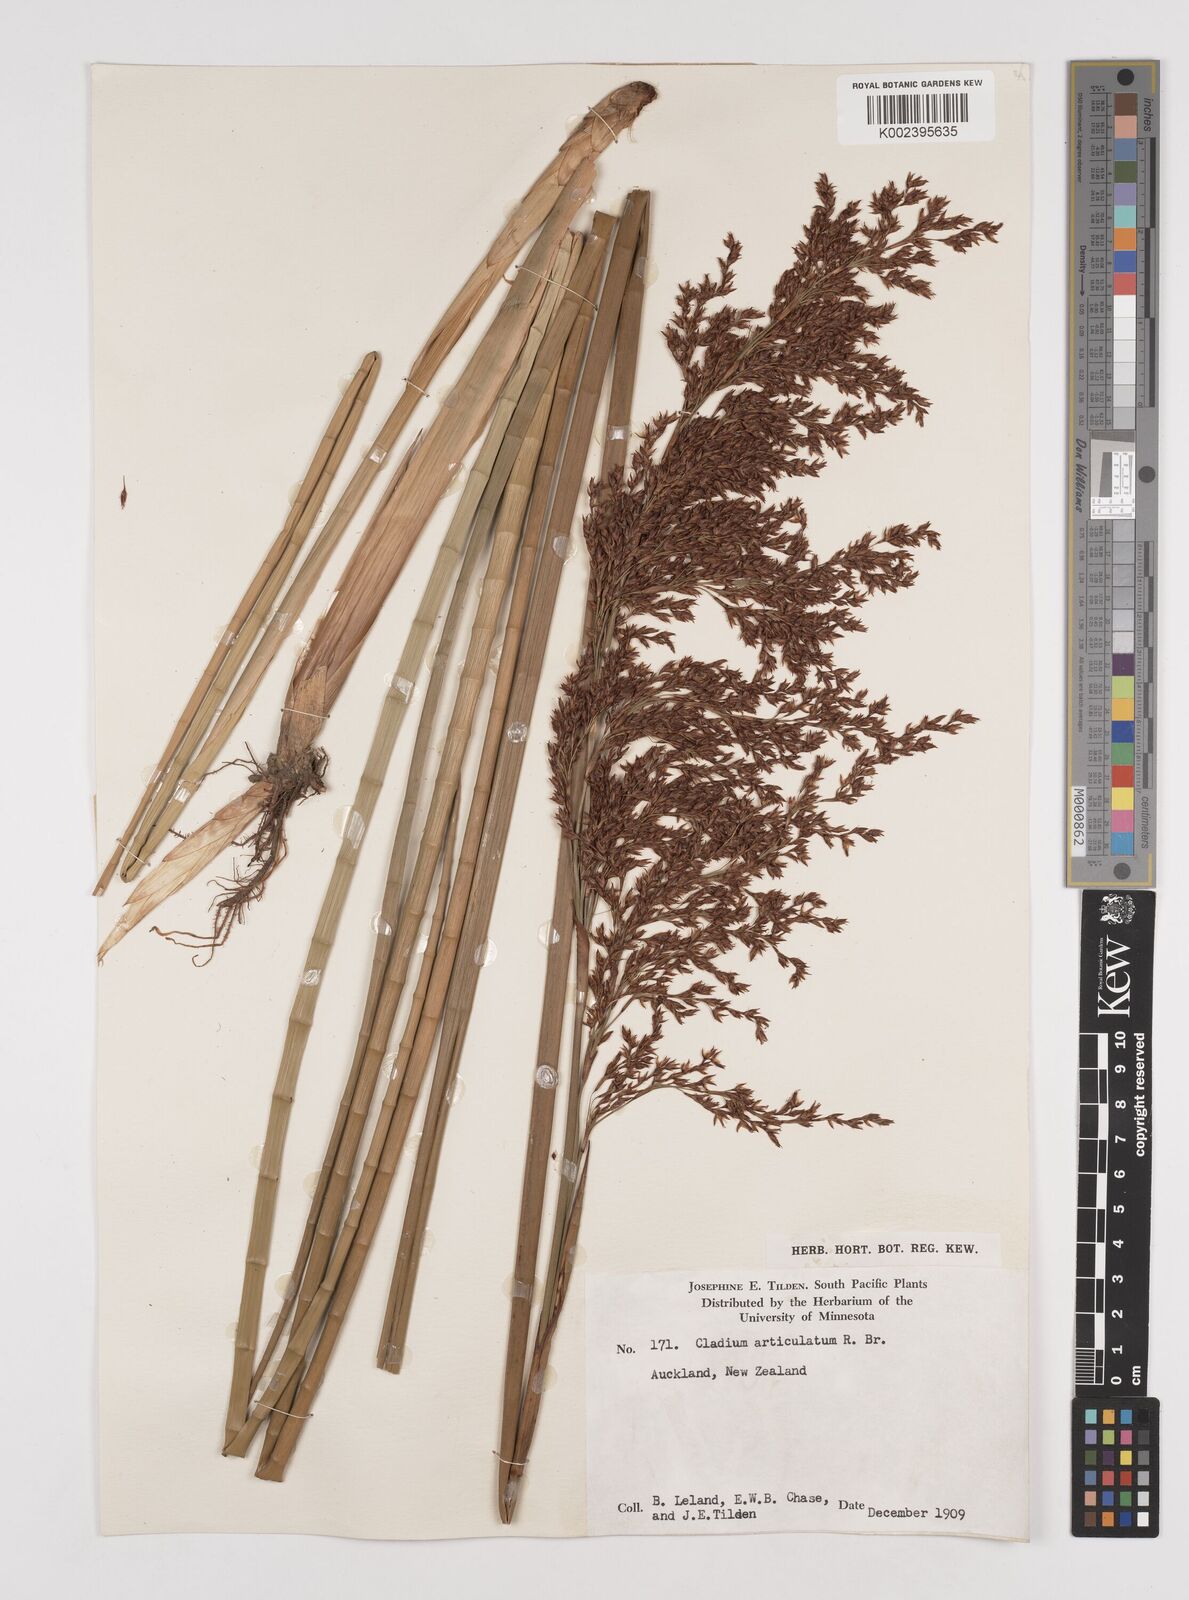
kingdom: Plantae
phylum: Tracheophyta
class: Liliopsida
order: Poales
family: Cyperaceae
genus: Machaerina
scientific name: Machaerina articulata
